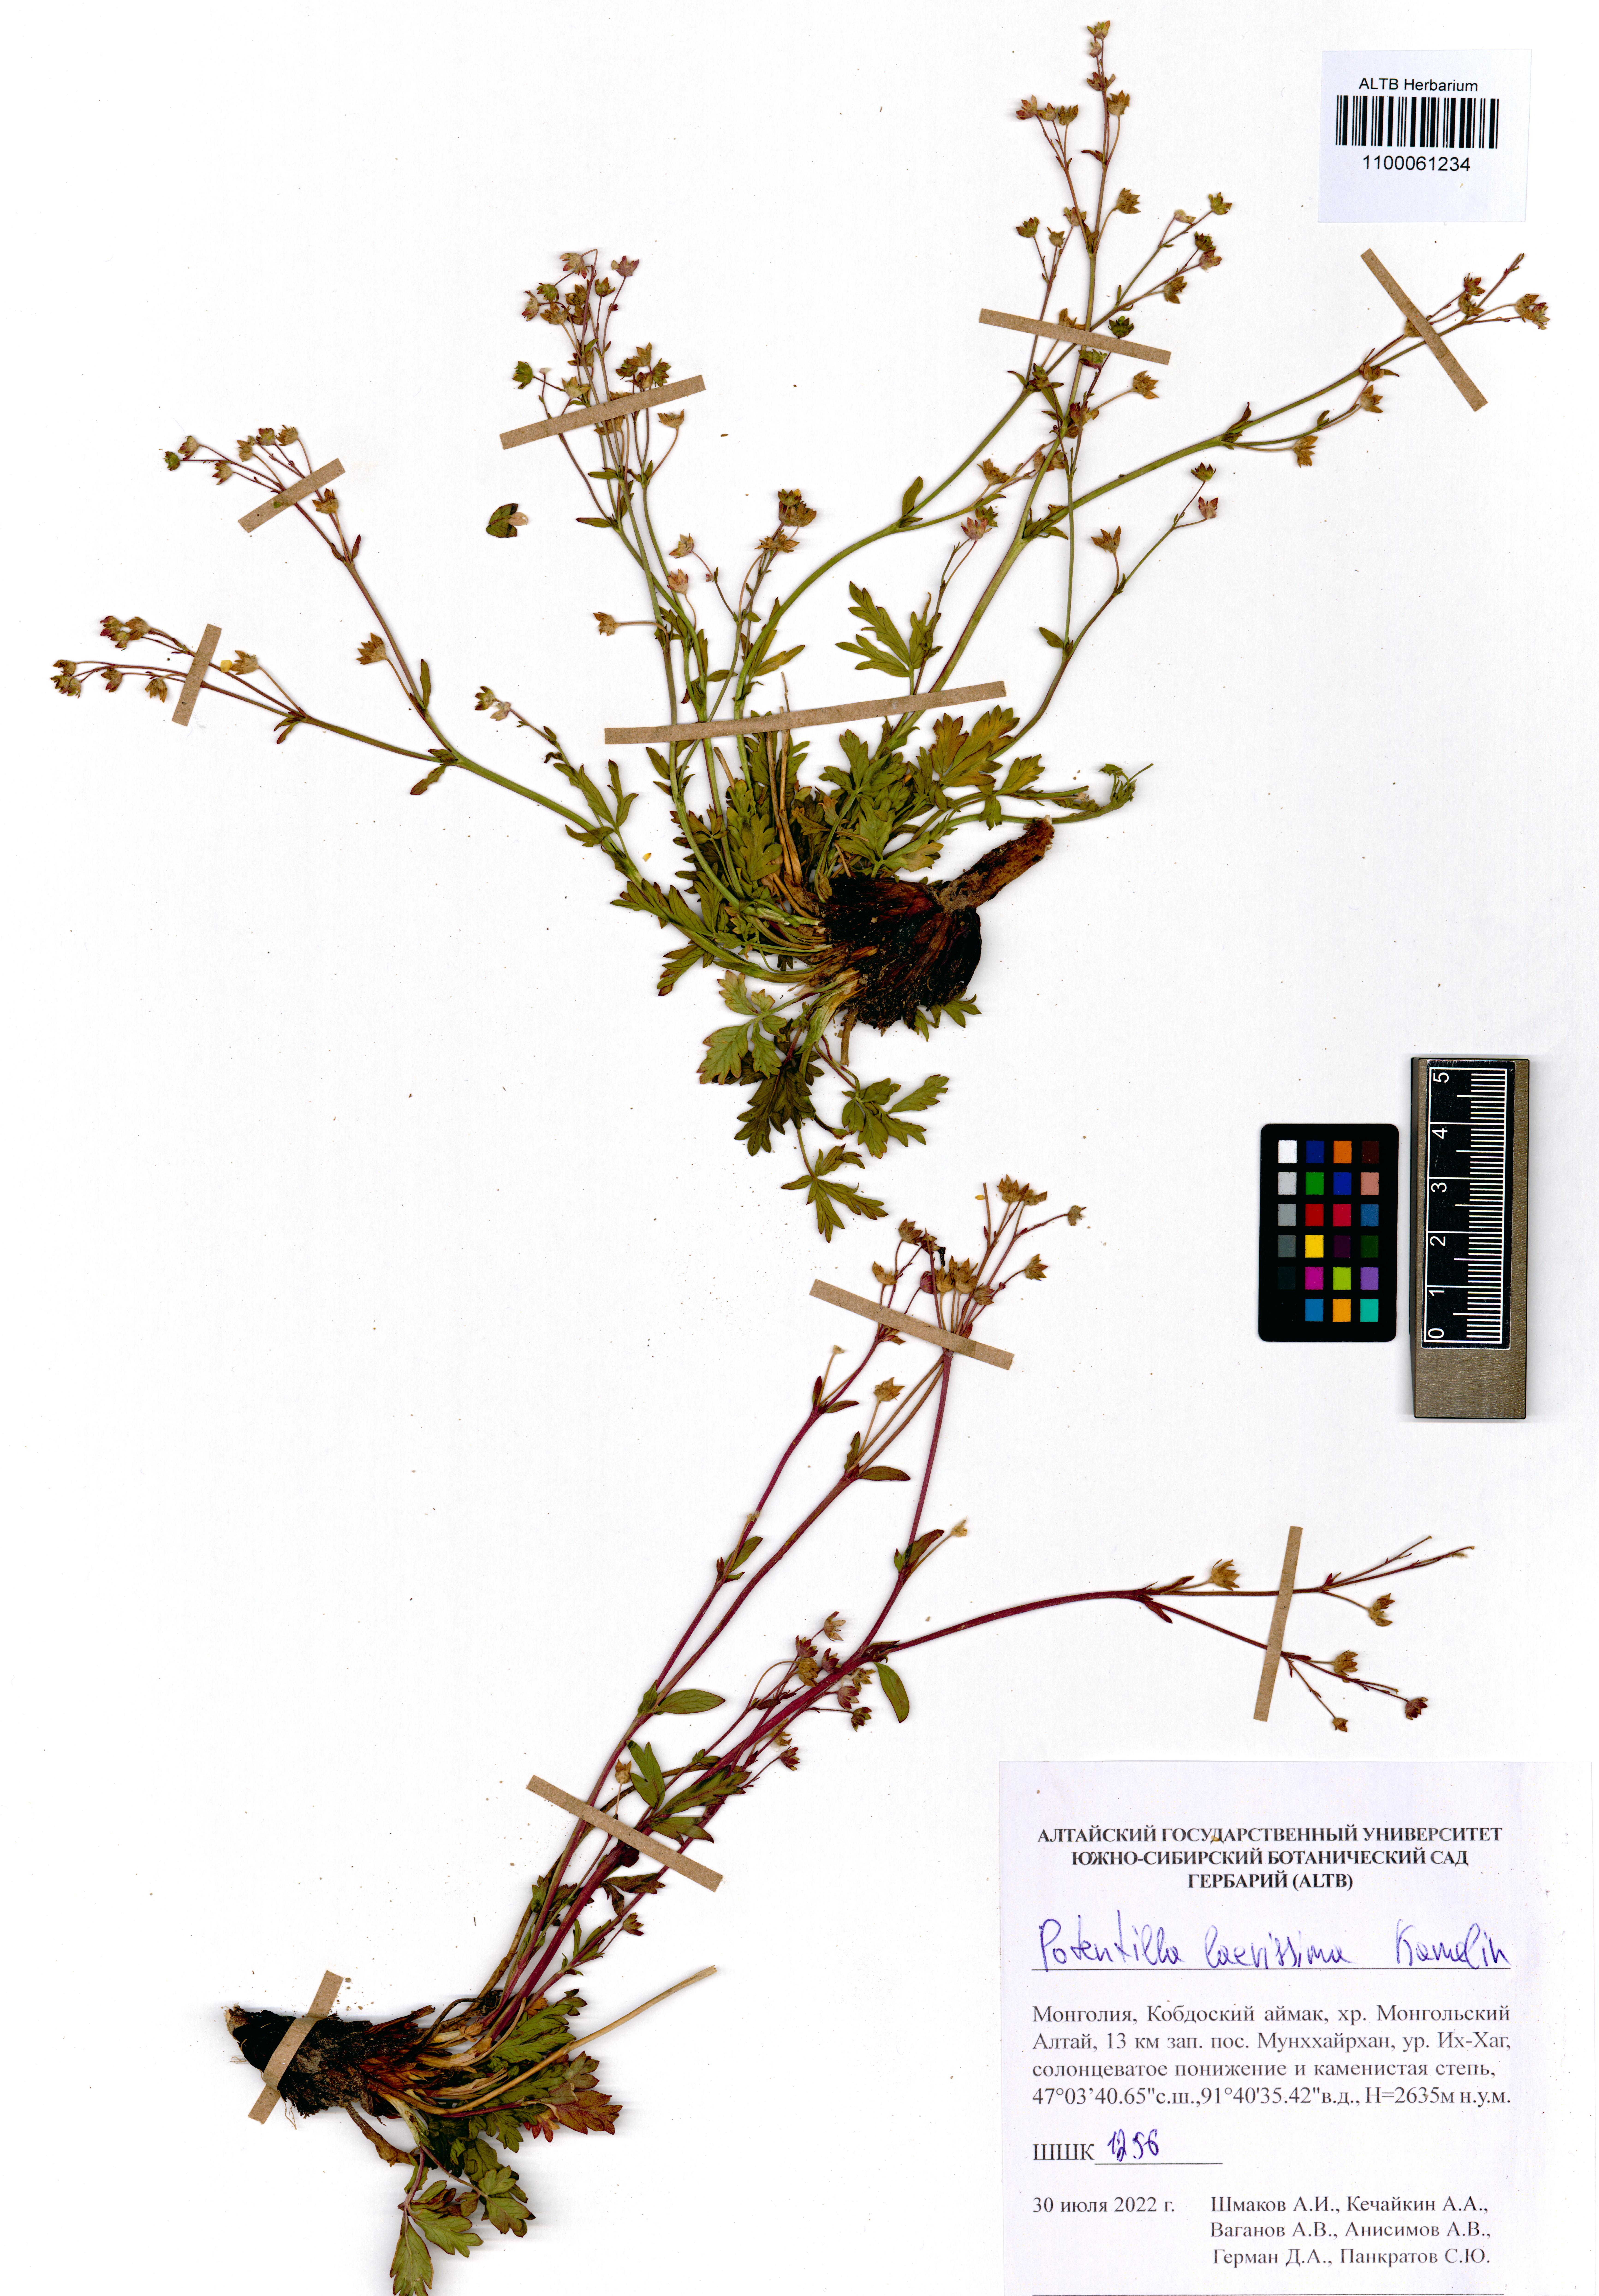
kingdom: Plantae
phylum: Tracheophyta
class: Magnoliopsida
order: Rosales
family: Rosaceae
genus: Potentilla
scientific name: Potentilla laevissima
